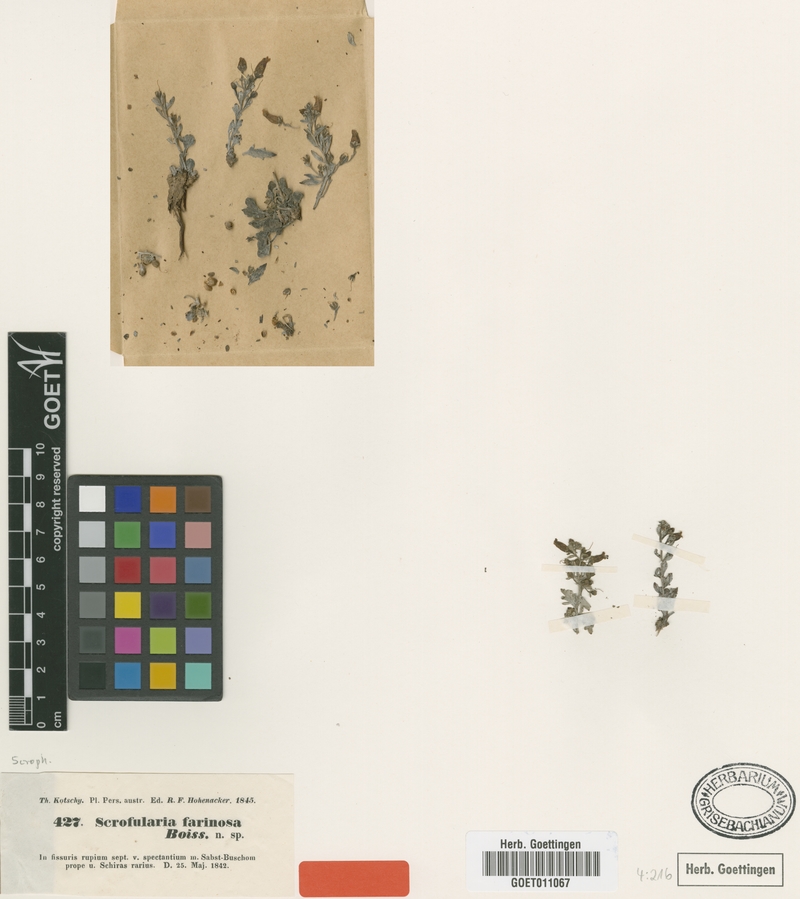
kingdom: Plantae
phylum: Tracheophyta
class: Magnoliopsida
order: Lamiales
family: Scrophulariaceae
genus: Scrophularia
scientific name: Scrophularia longiflora
